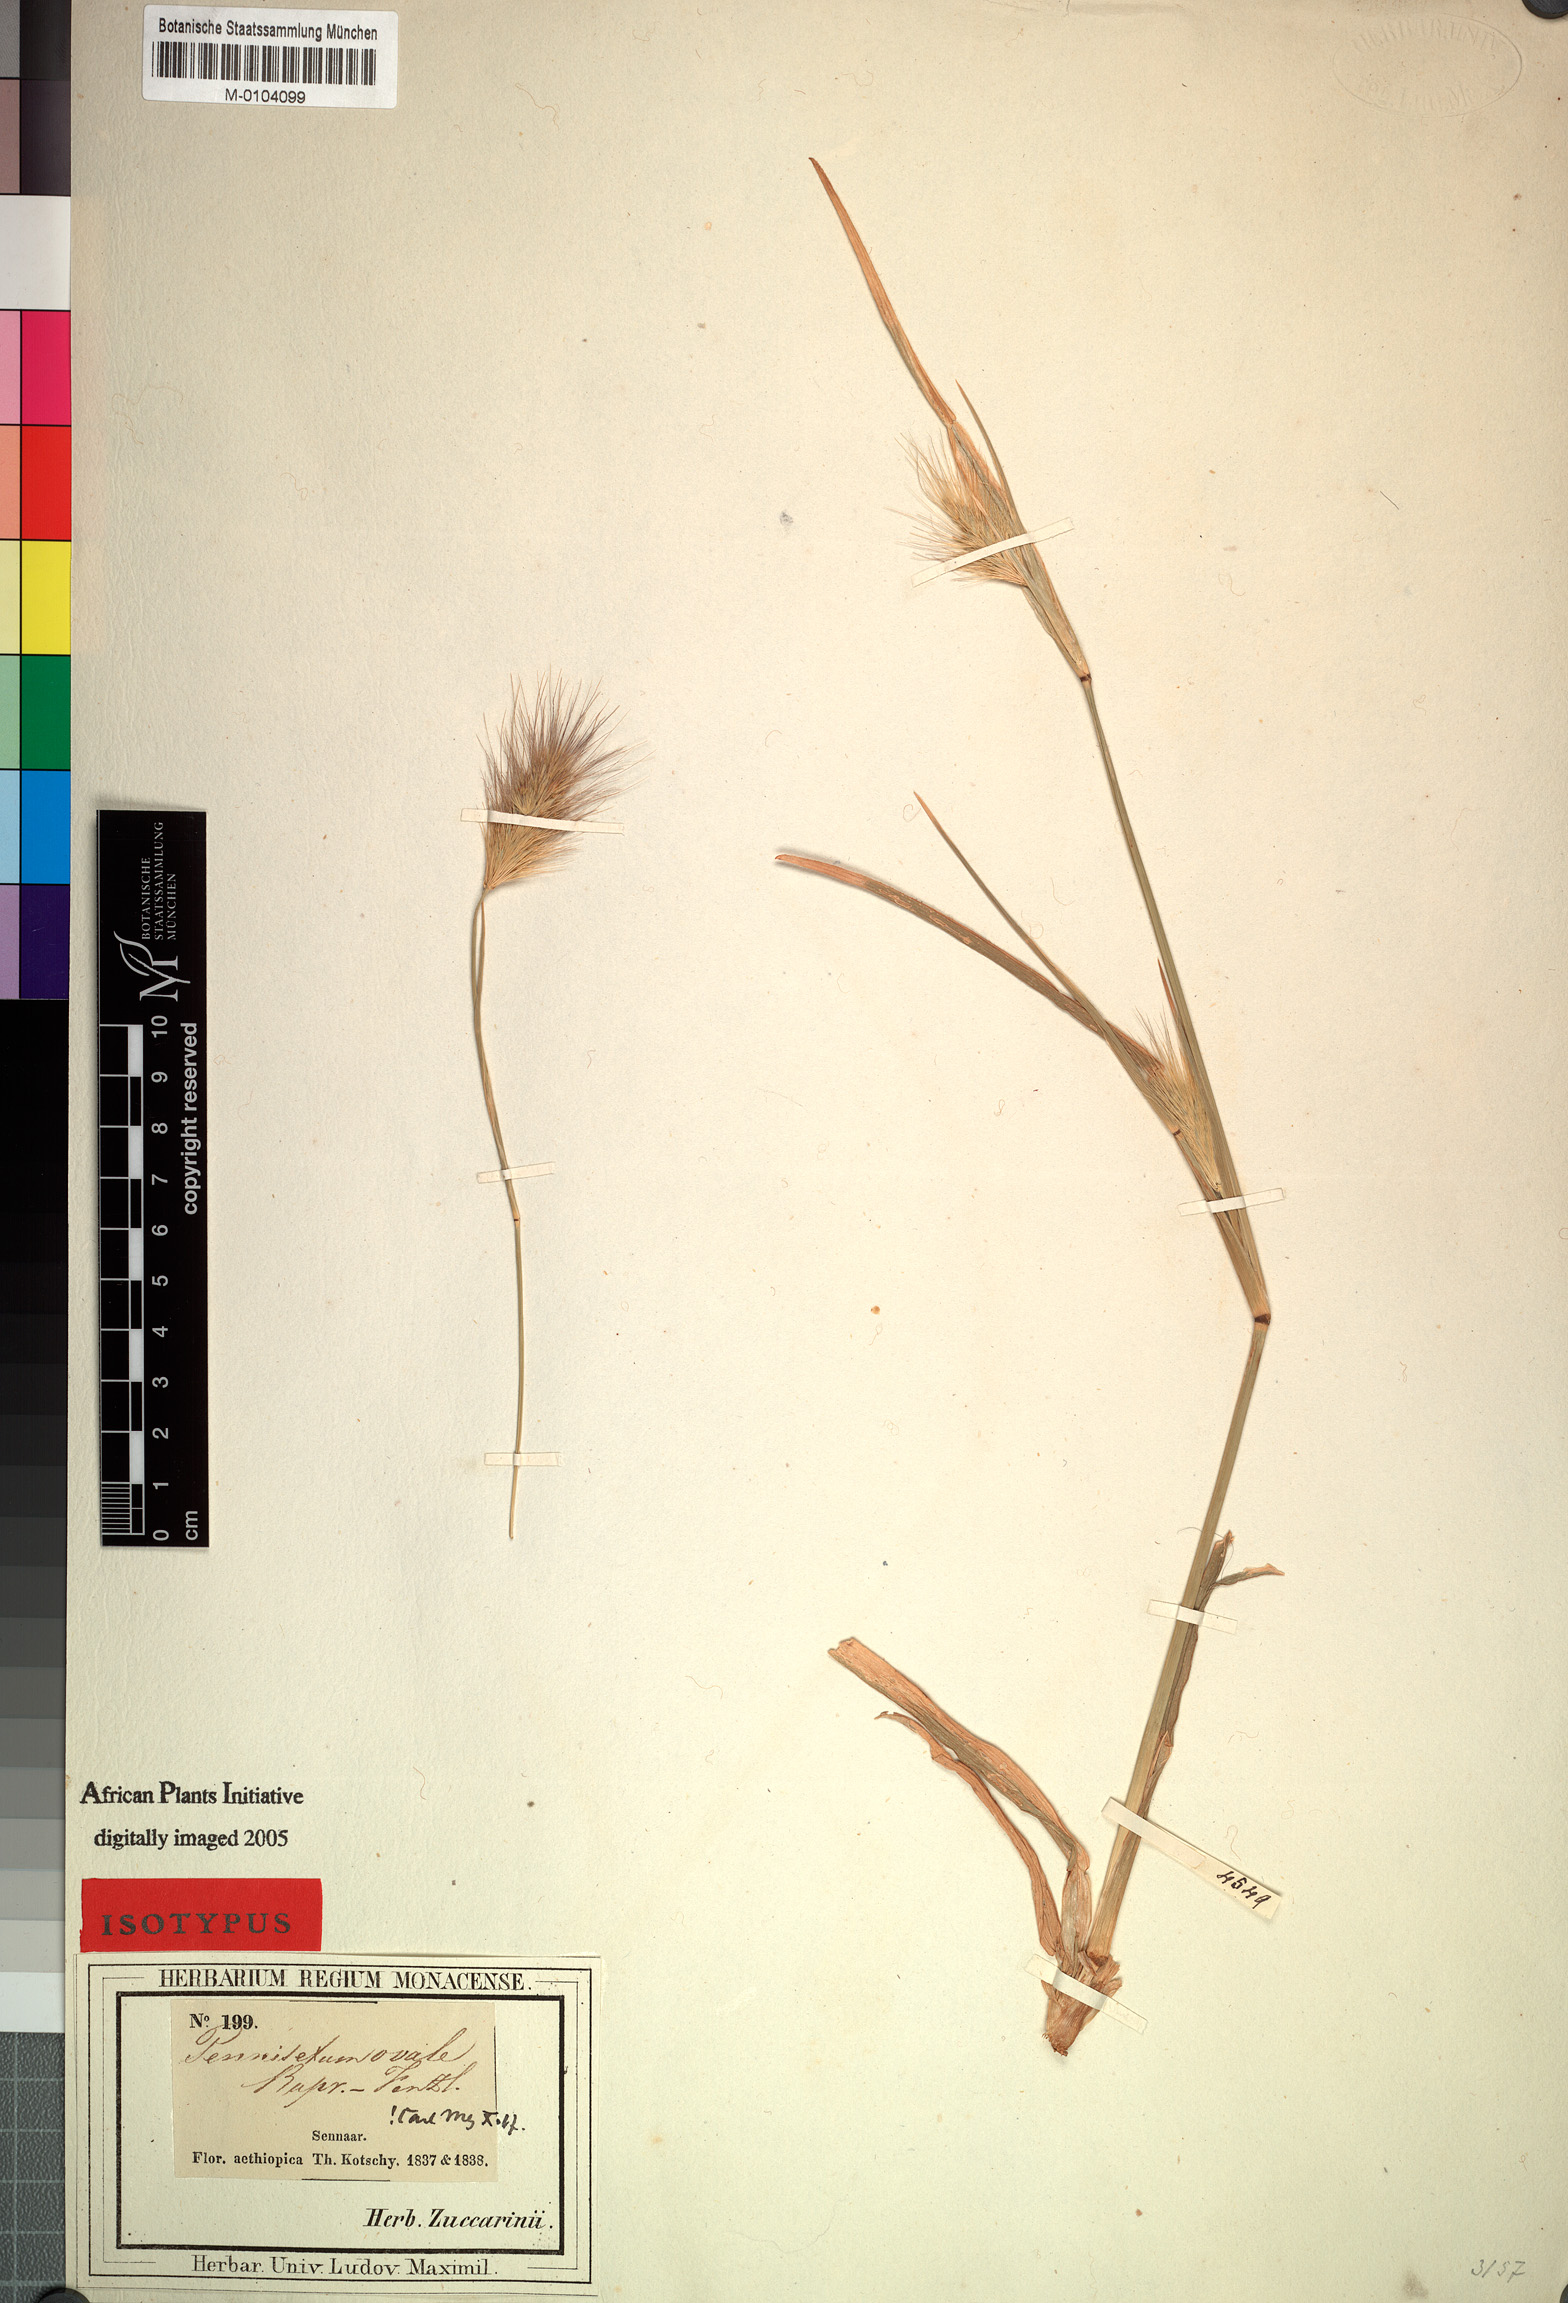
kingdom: Plantae
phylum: Tracheophyta
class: Liliopsida
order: Poales
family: Poaceae
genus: Cenchrus
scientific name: Cenchrus ramosus
